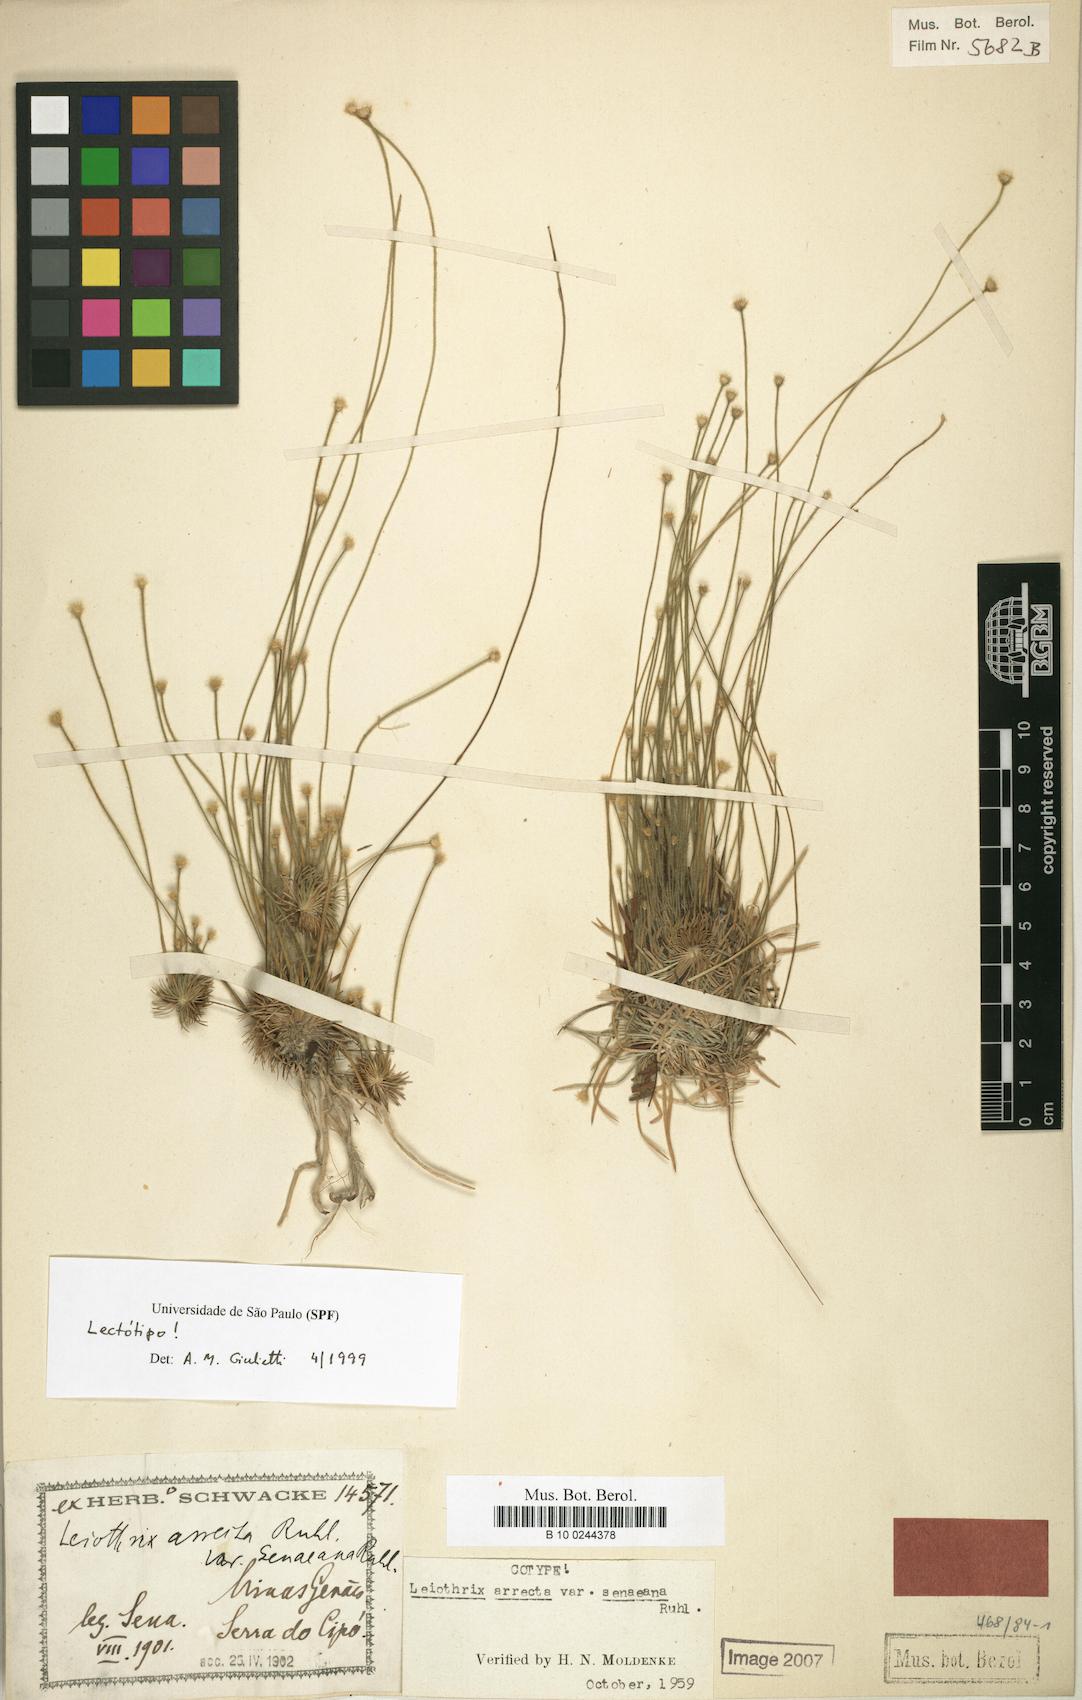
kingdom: Plantae
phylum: Tracheophyta
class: Liliopsida
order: Poales
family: Eriocaulaceae
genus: Leiothrix
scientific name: Leiothrix arrecta
